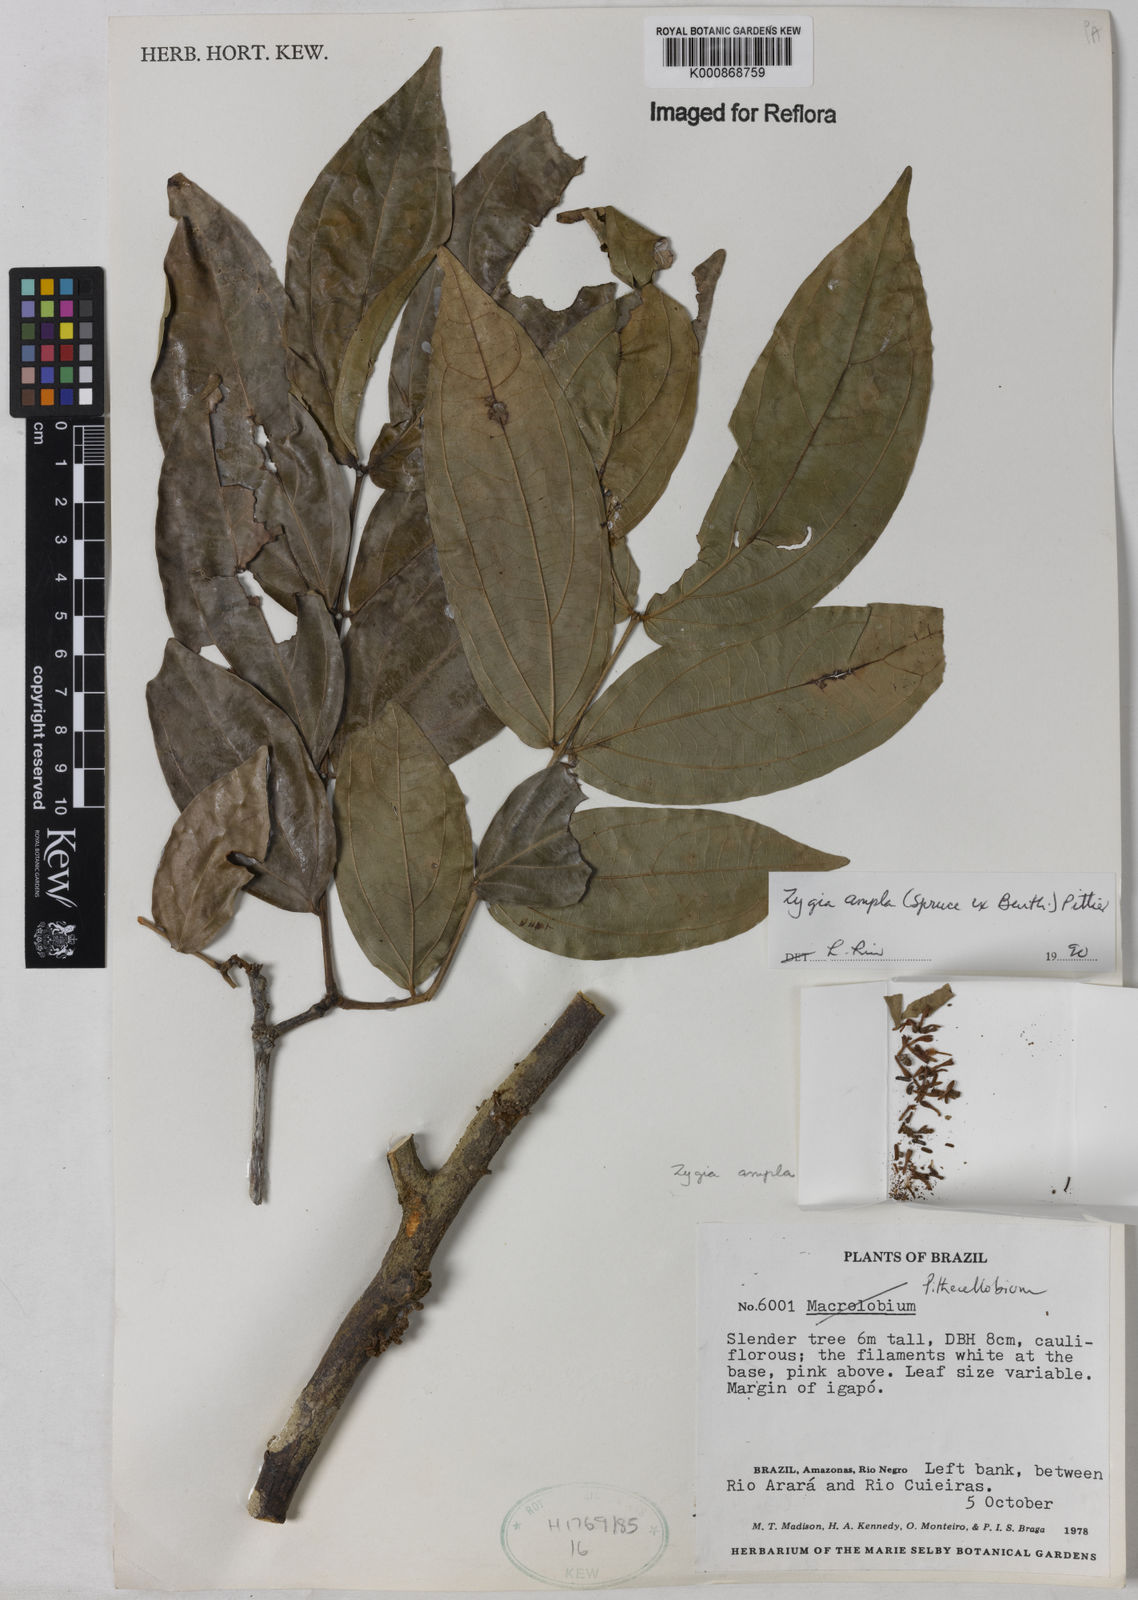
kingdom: Plantae
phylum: Tracheophyta
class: Magnoliopsida
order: Fabales
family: Fabaceae
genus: Zygia
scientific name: Zygia ampla
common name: Jarendeua de sapo
